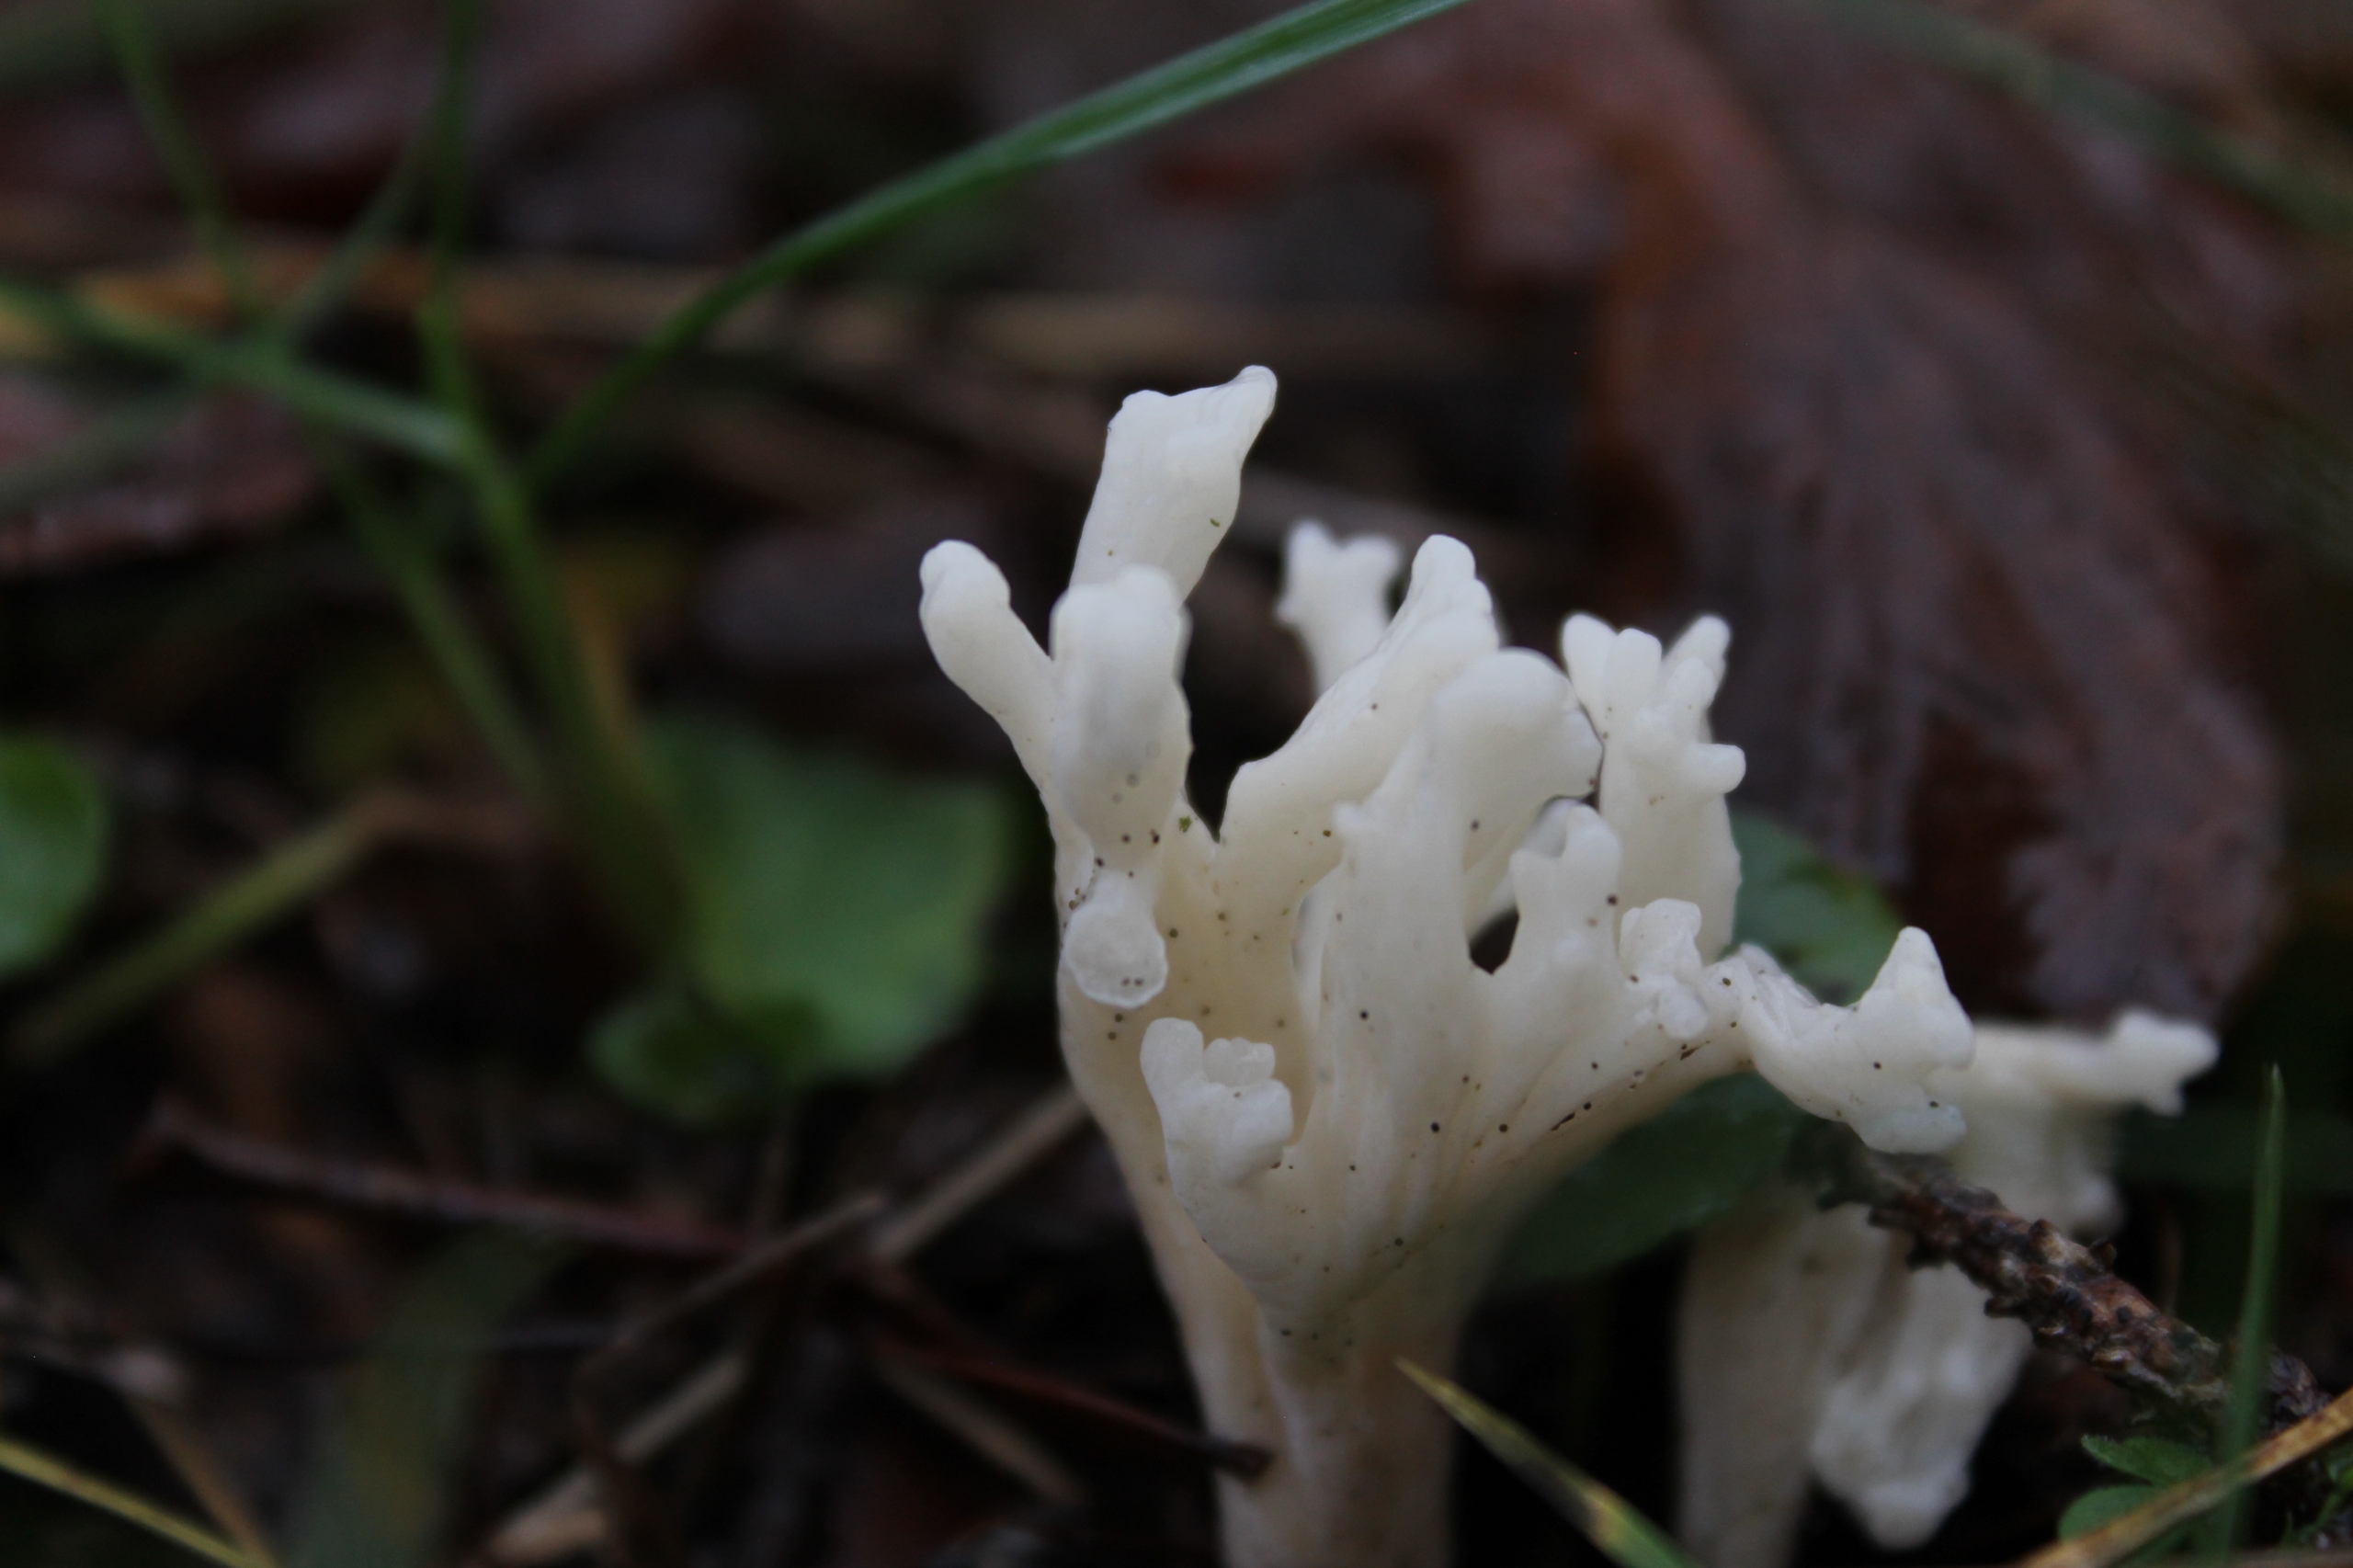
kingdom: Fungi
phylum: Basidiomycota
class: Agaricomycetes
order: Cantharellales
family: Hydnaceae
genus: Clavulina
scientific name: Clavulina coralloides
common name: Kam-troldkølle
